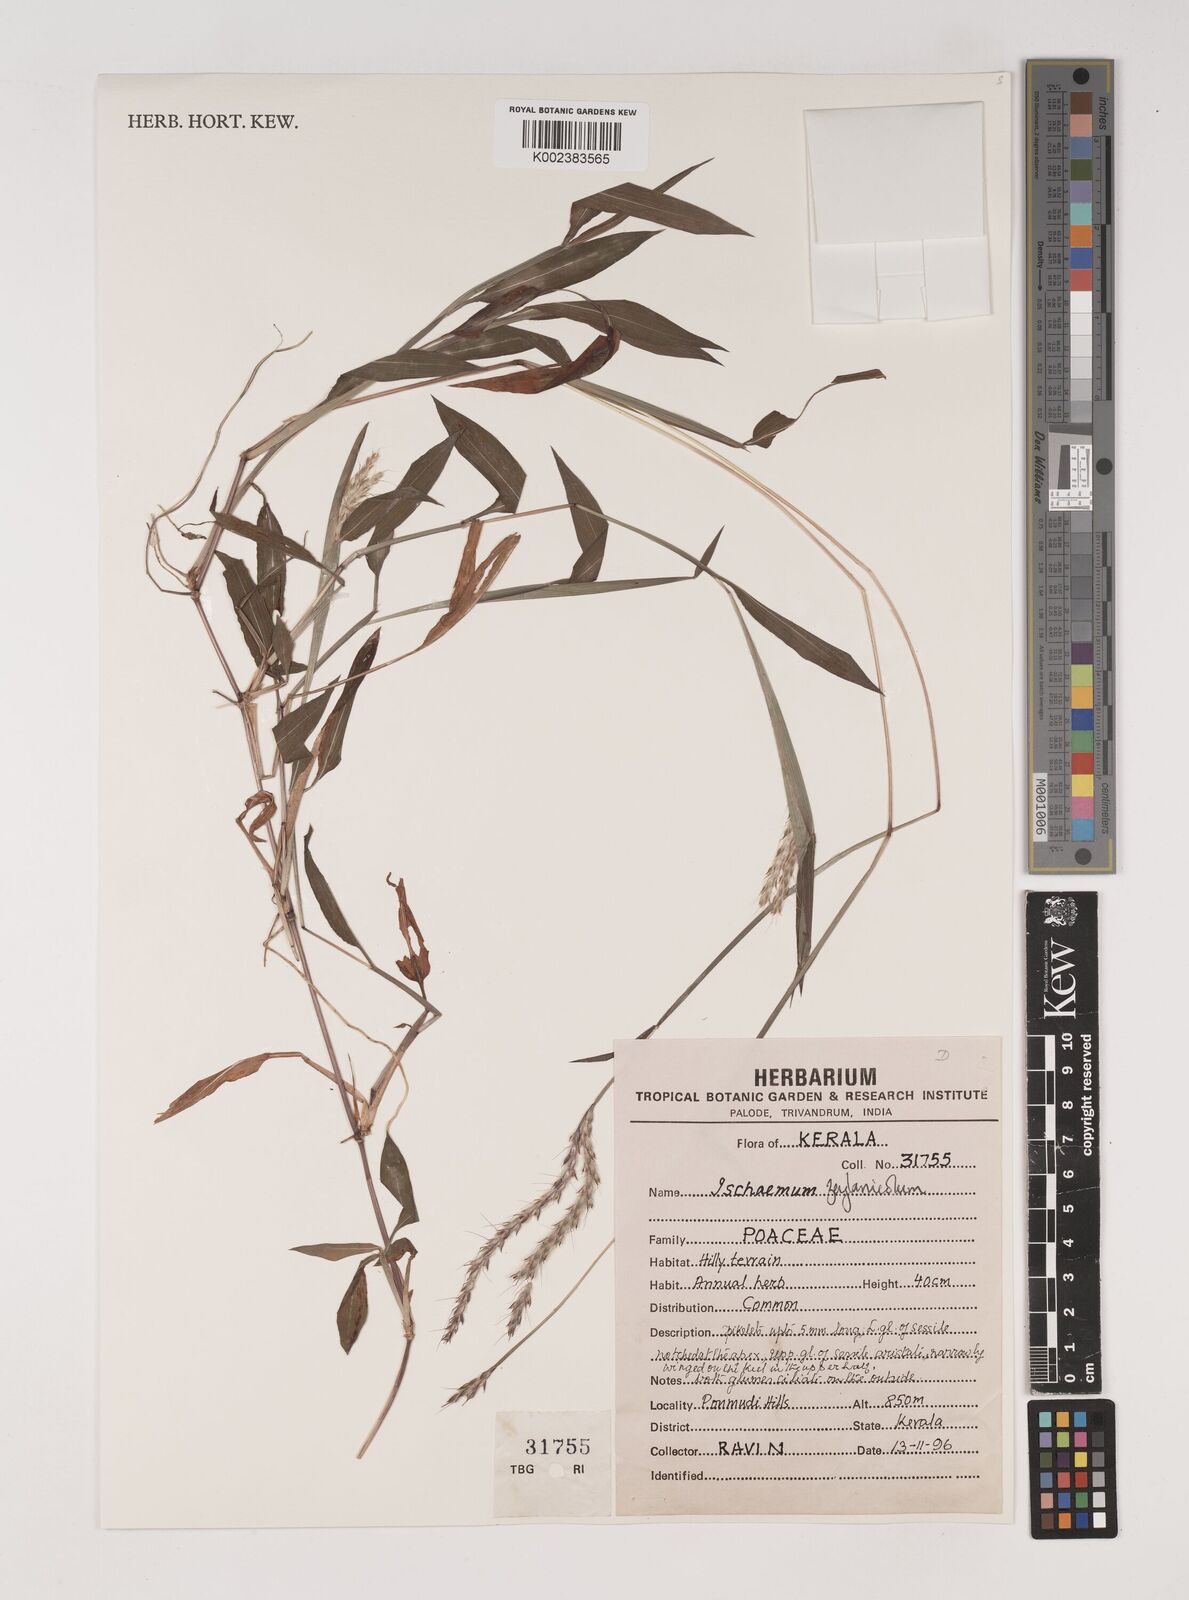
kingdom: Plantae
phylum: Tracheophyta
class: Liliopsida
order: Poales
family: Poaceae
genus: Ischaemum
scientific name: Ischaemum zeylanicola
